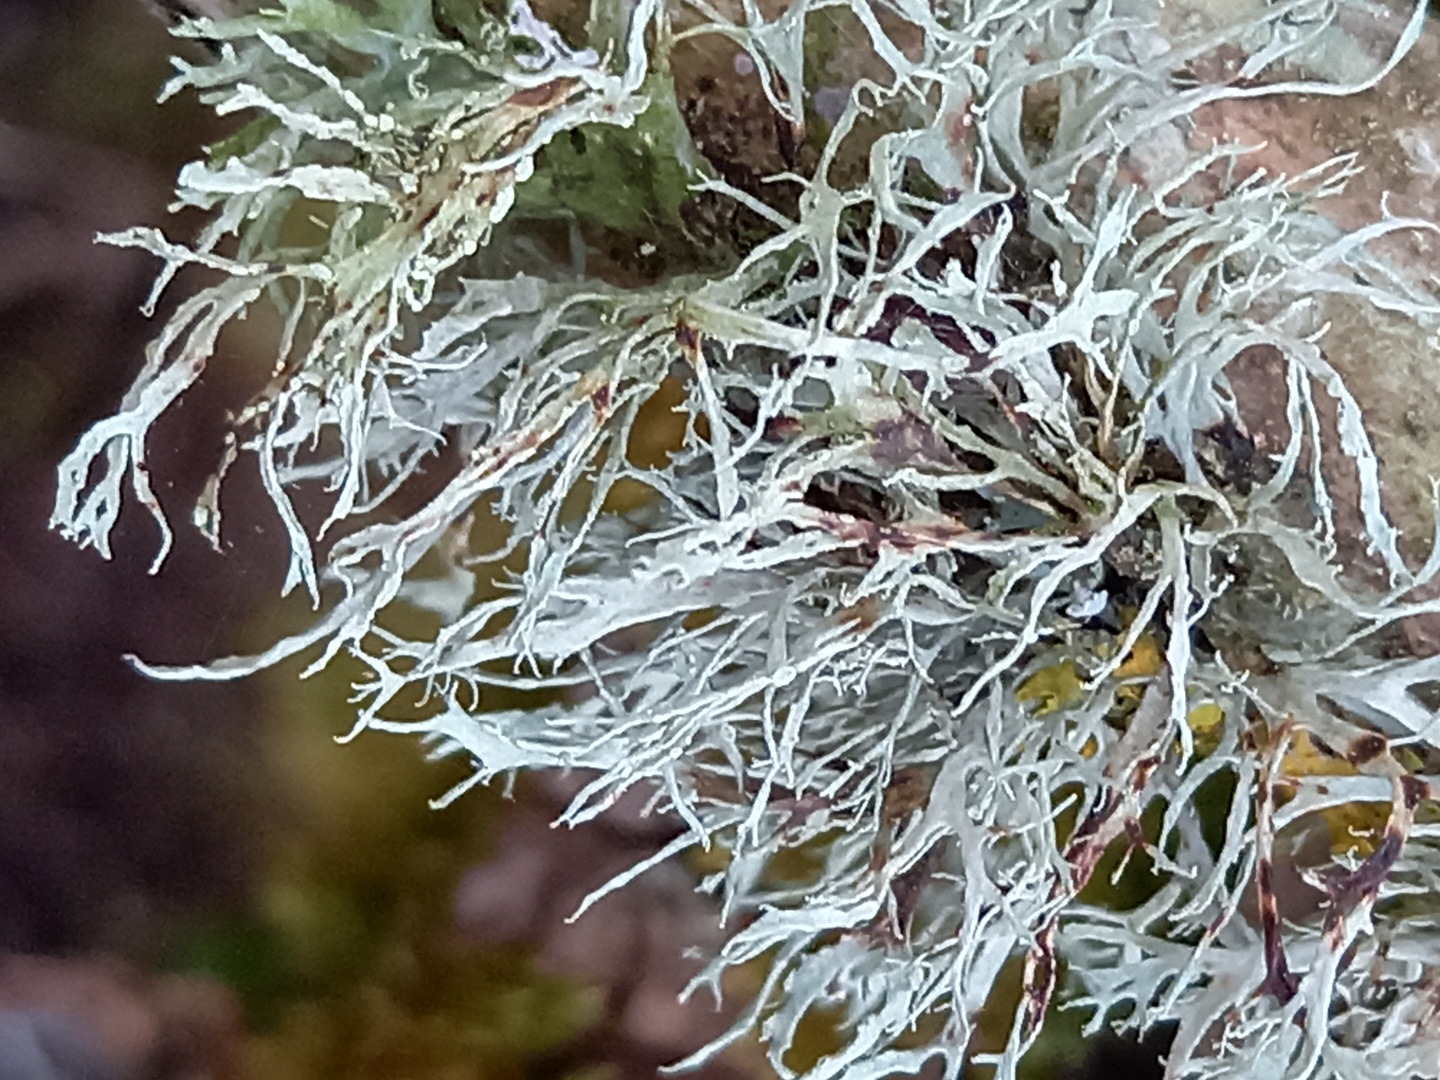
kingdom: Fungi
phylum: Ascomycota
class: Lecanoromycetes
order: Lecanorales
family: Ramalinaceae
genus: Ramalina
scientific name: Ramalina farinacea
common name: melet grenlav
